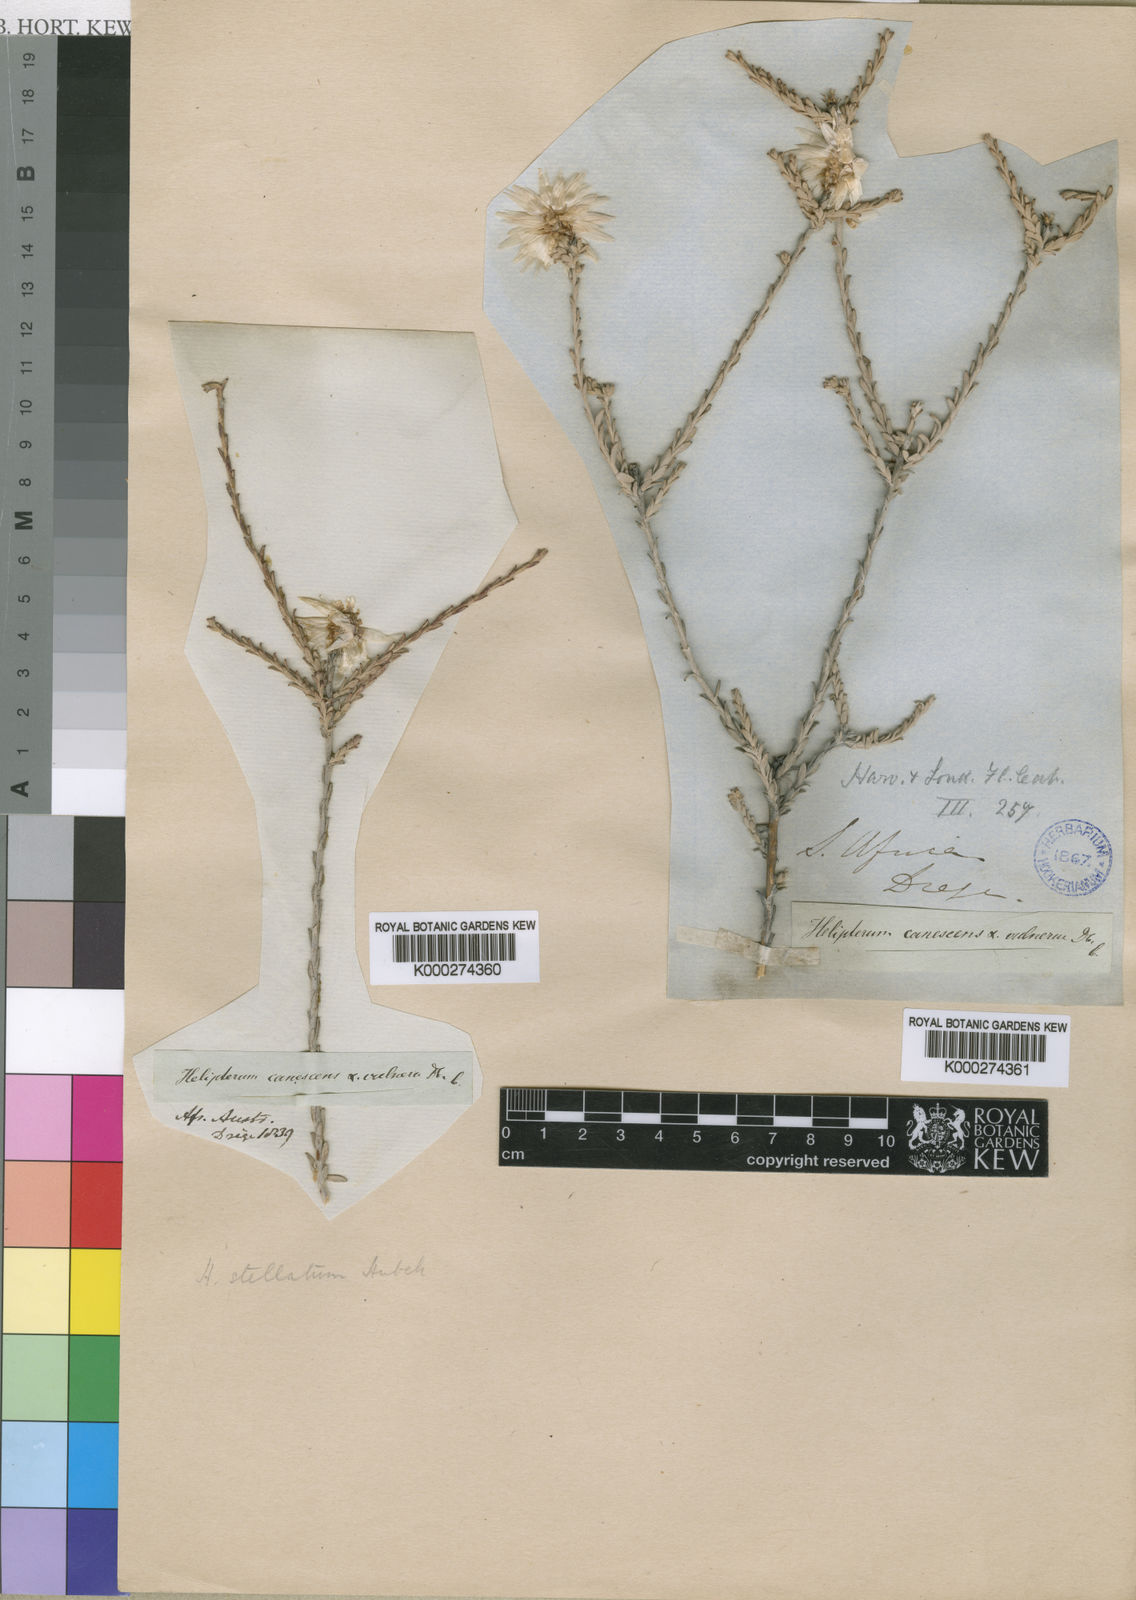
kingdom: Plantae
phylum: Tracheophyta
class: Magnoliopsida
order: Asterales
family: Asteraceae
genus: Syncarpha
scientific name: Syncarpha canescens
